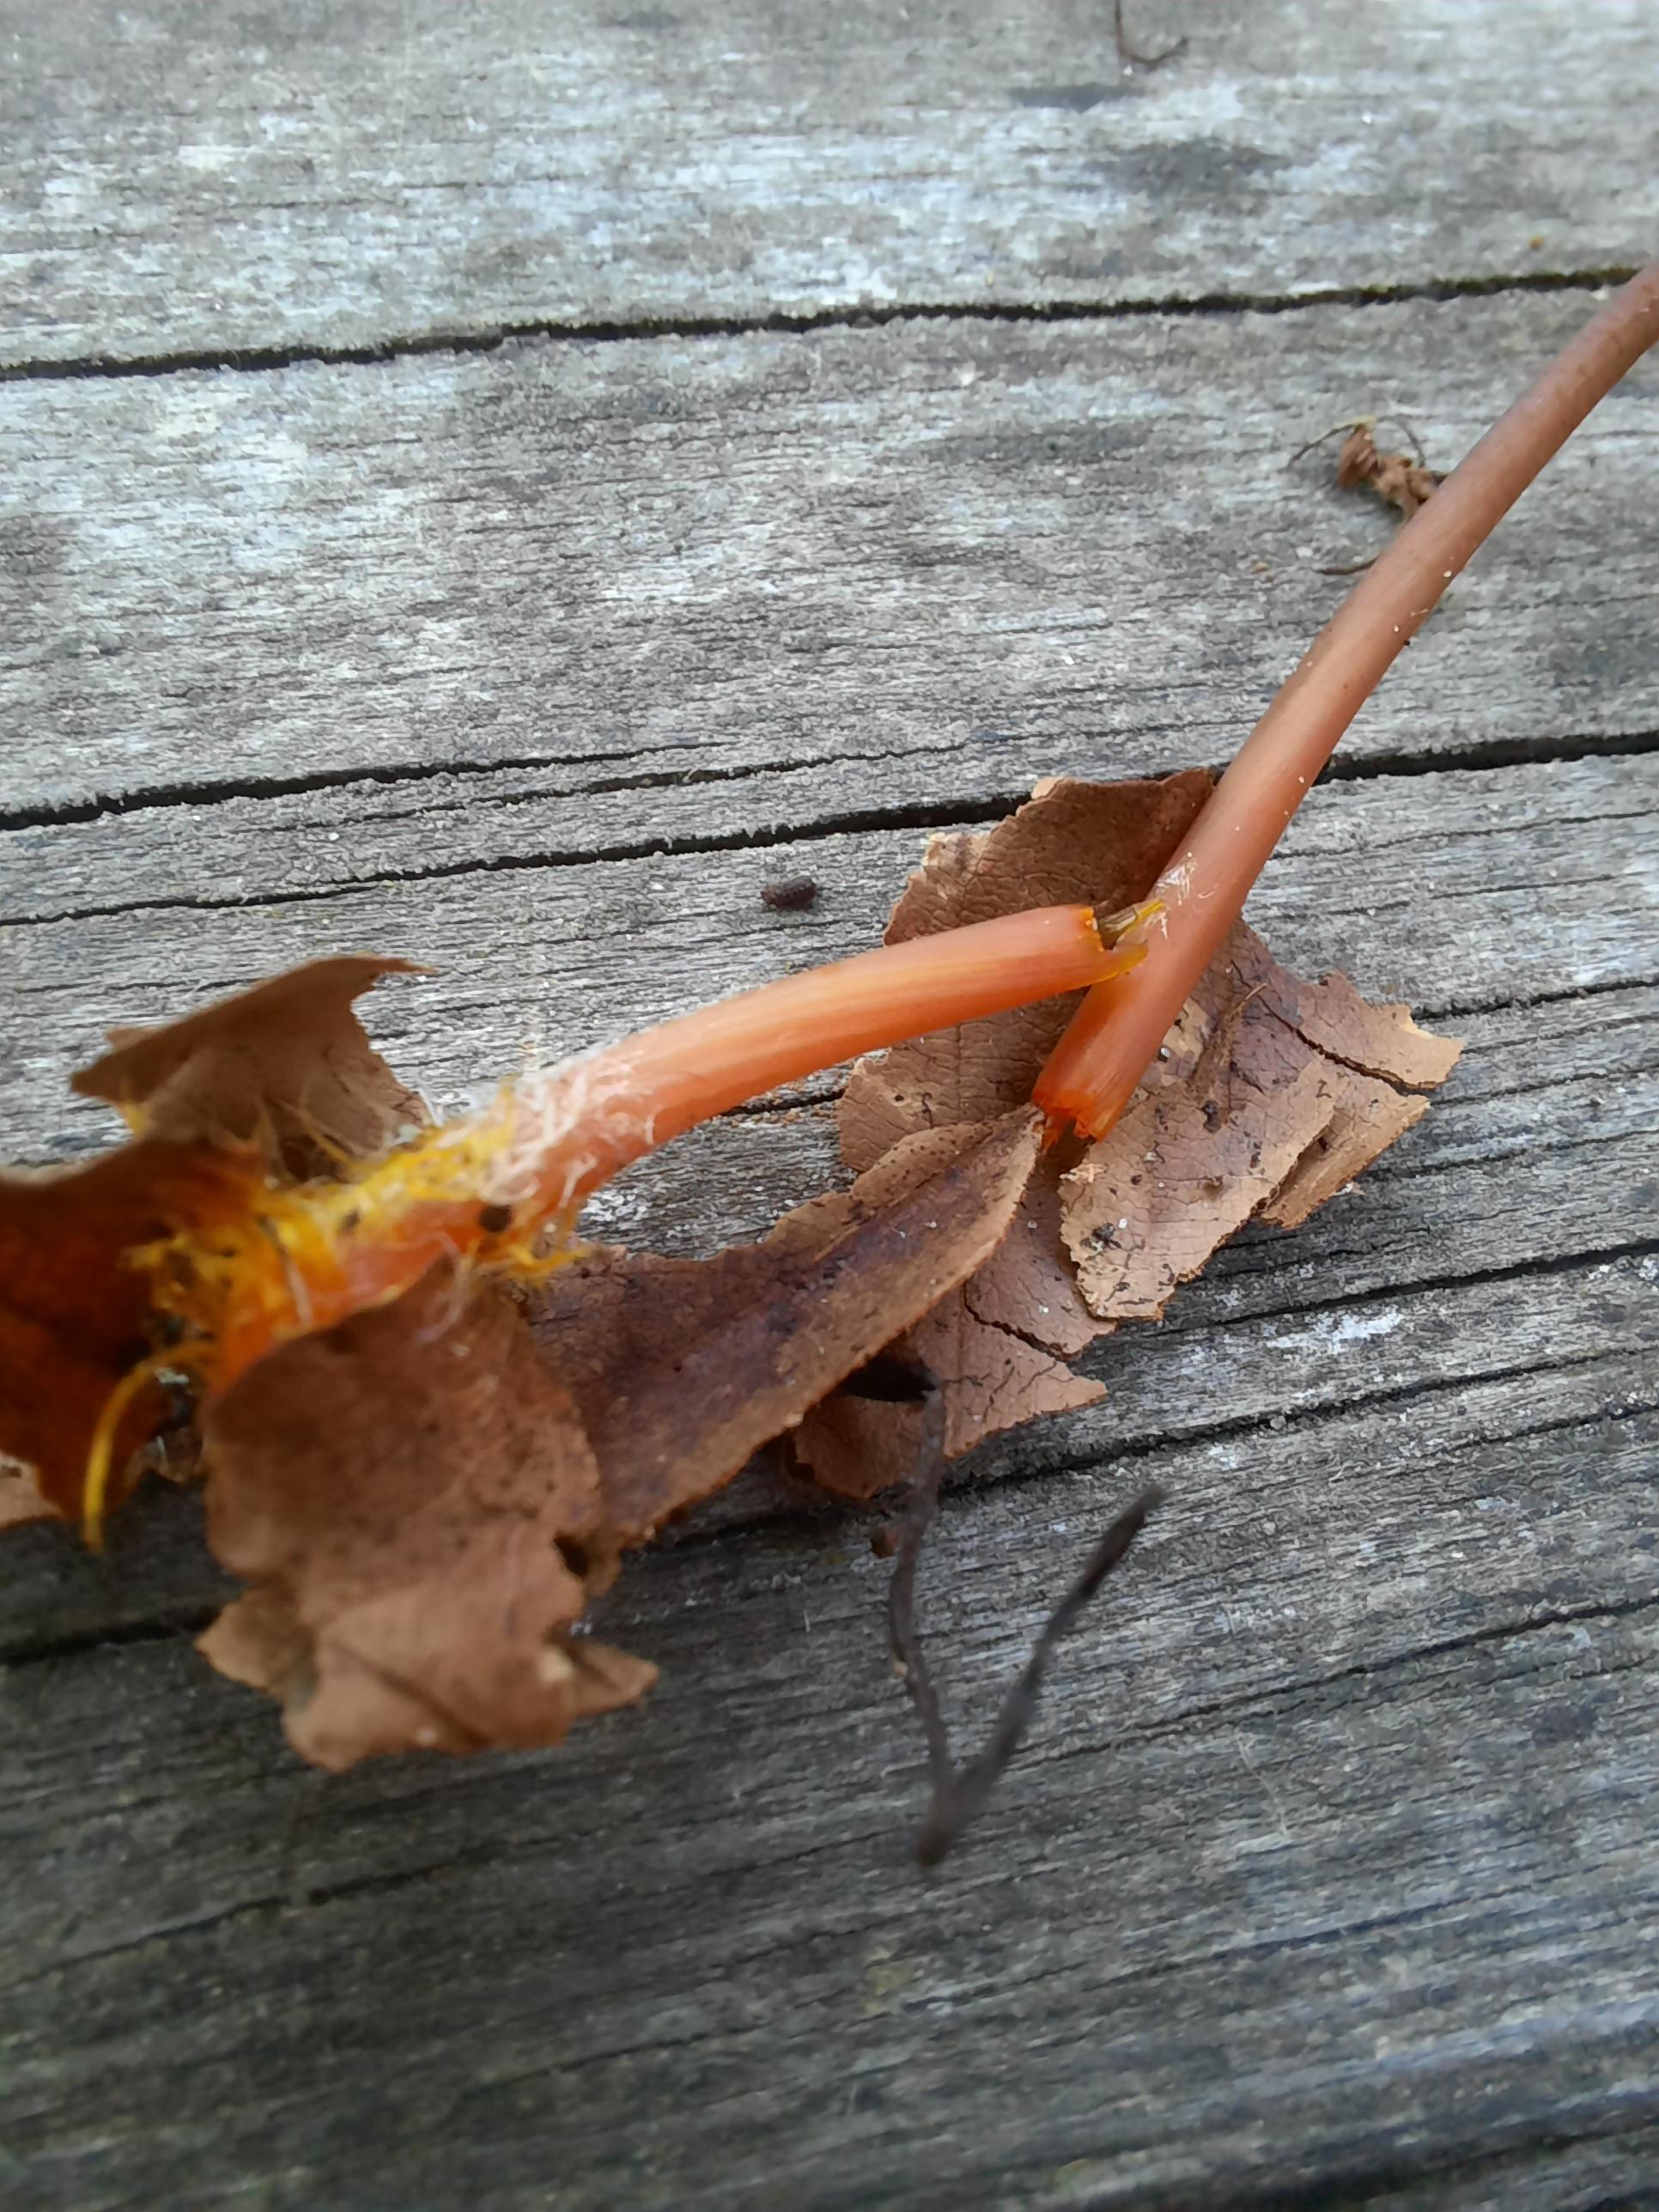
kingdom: Fungi
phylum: Basidiomycota
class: Agaricomycetes
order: Agaricales
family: Mycenaceae
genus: Mycena
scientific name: Mycena crocata
